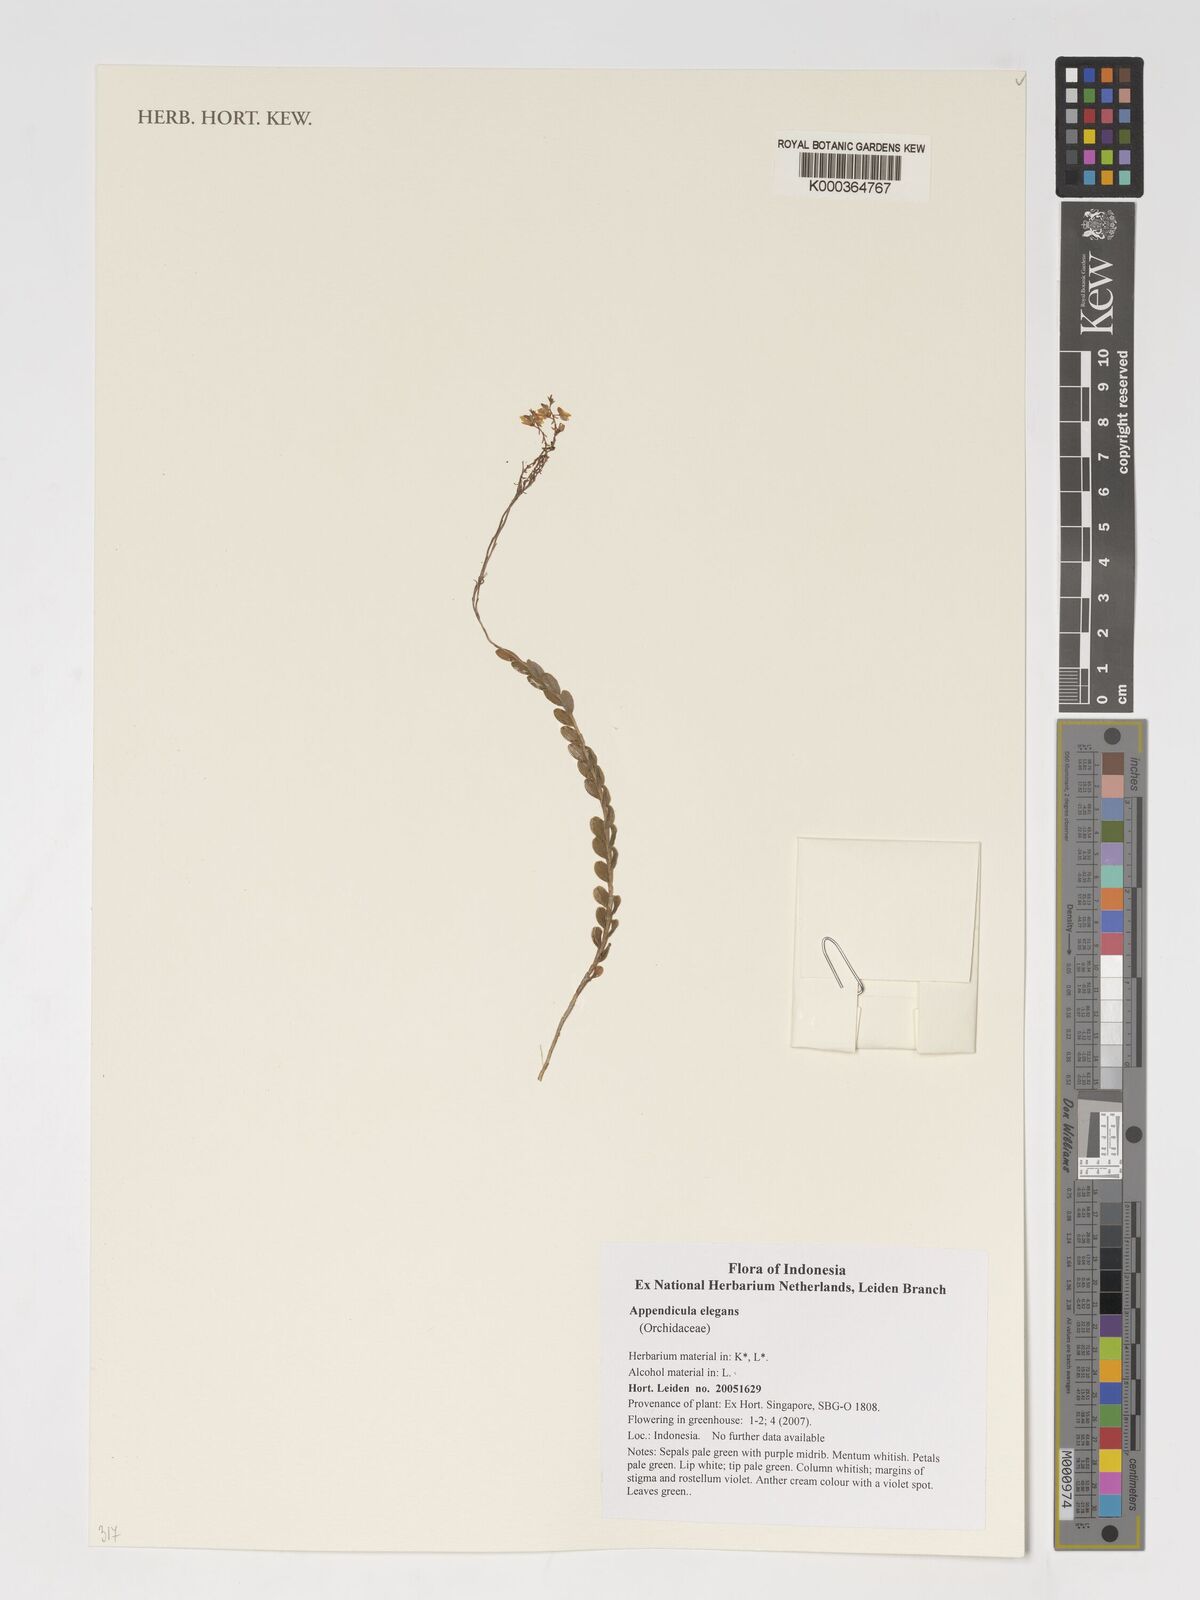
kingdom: Plantae
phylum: Tracheophyta
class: Liliopsida
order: Asparagales
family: Orchidaceae
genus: Appendicula
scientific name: Appendicula elegans
